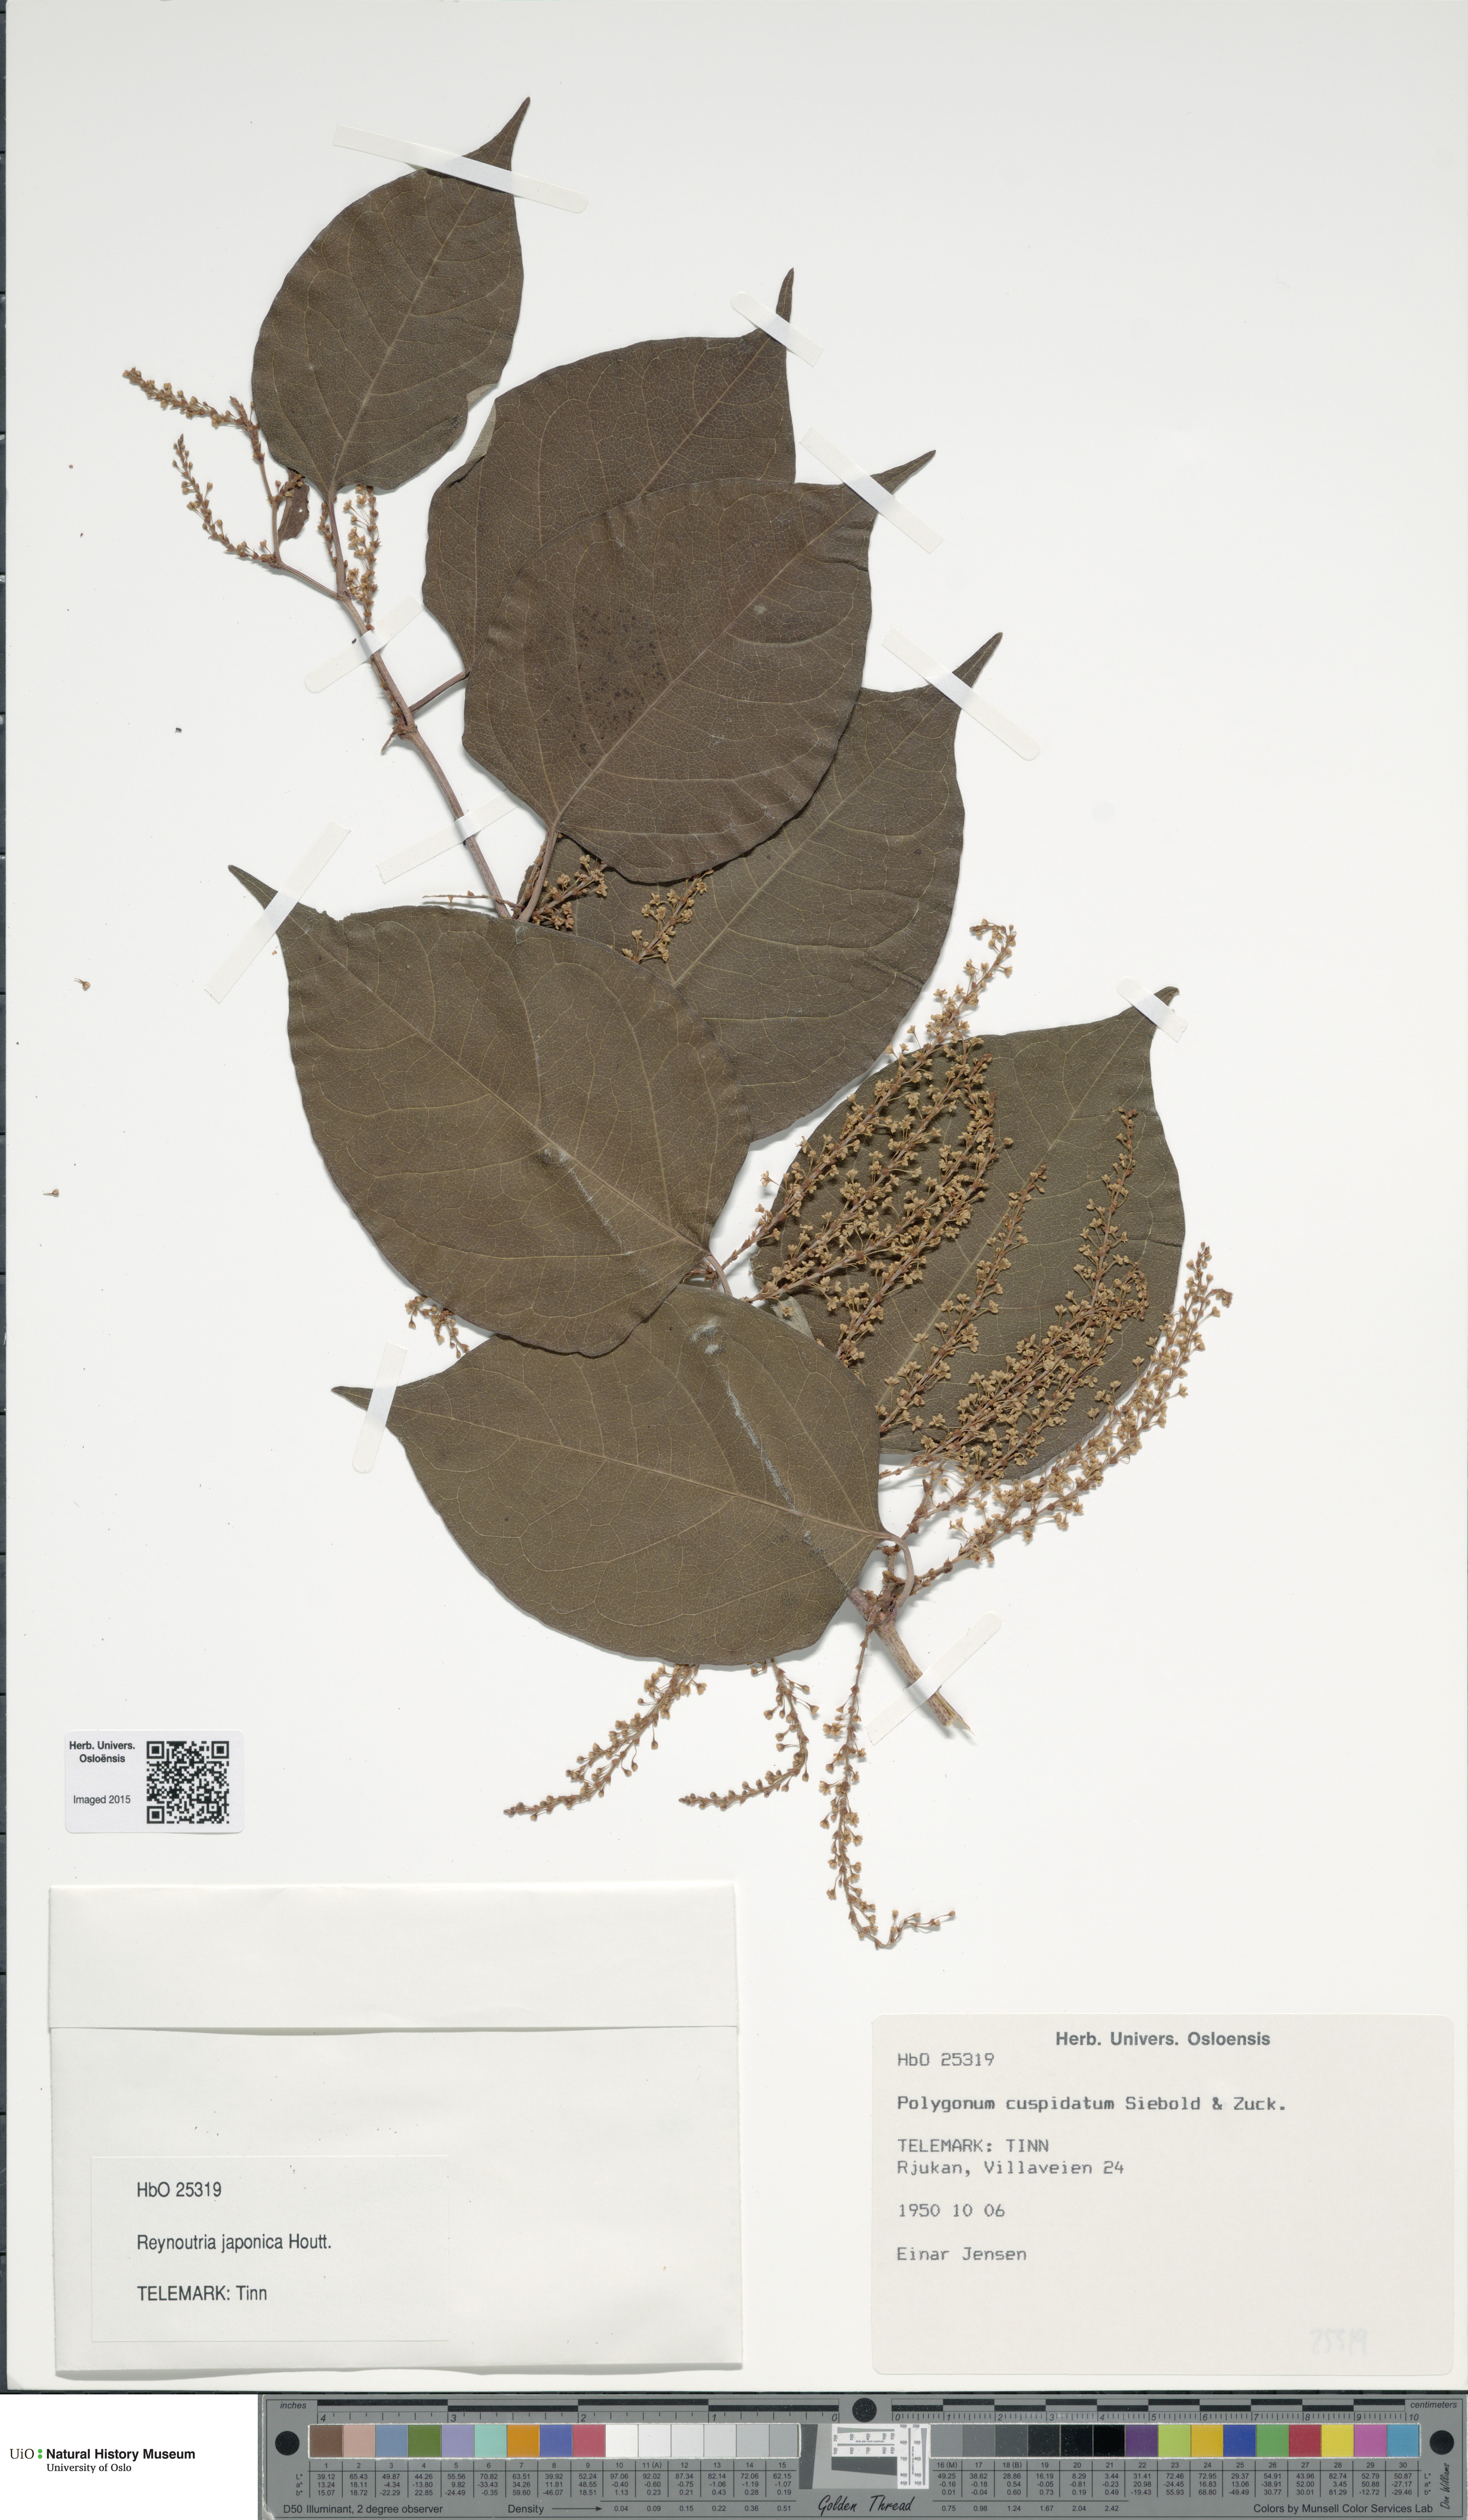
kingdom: Plantae
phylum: Tracheophyta
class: Magnoliopsida
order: Caryophyllales
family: Polygonaceae
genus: Reynoutria
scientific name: Reynoutria japonica
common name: Japanese knotweed
